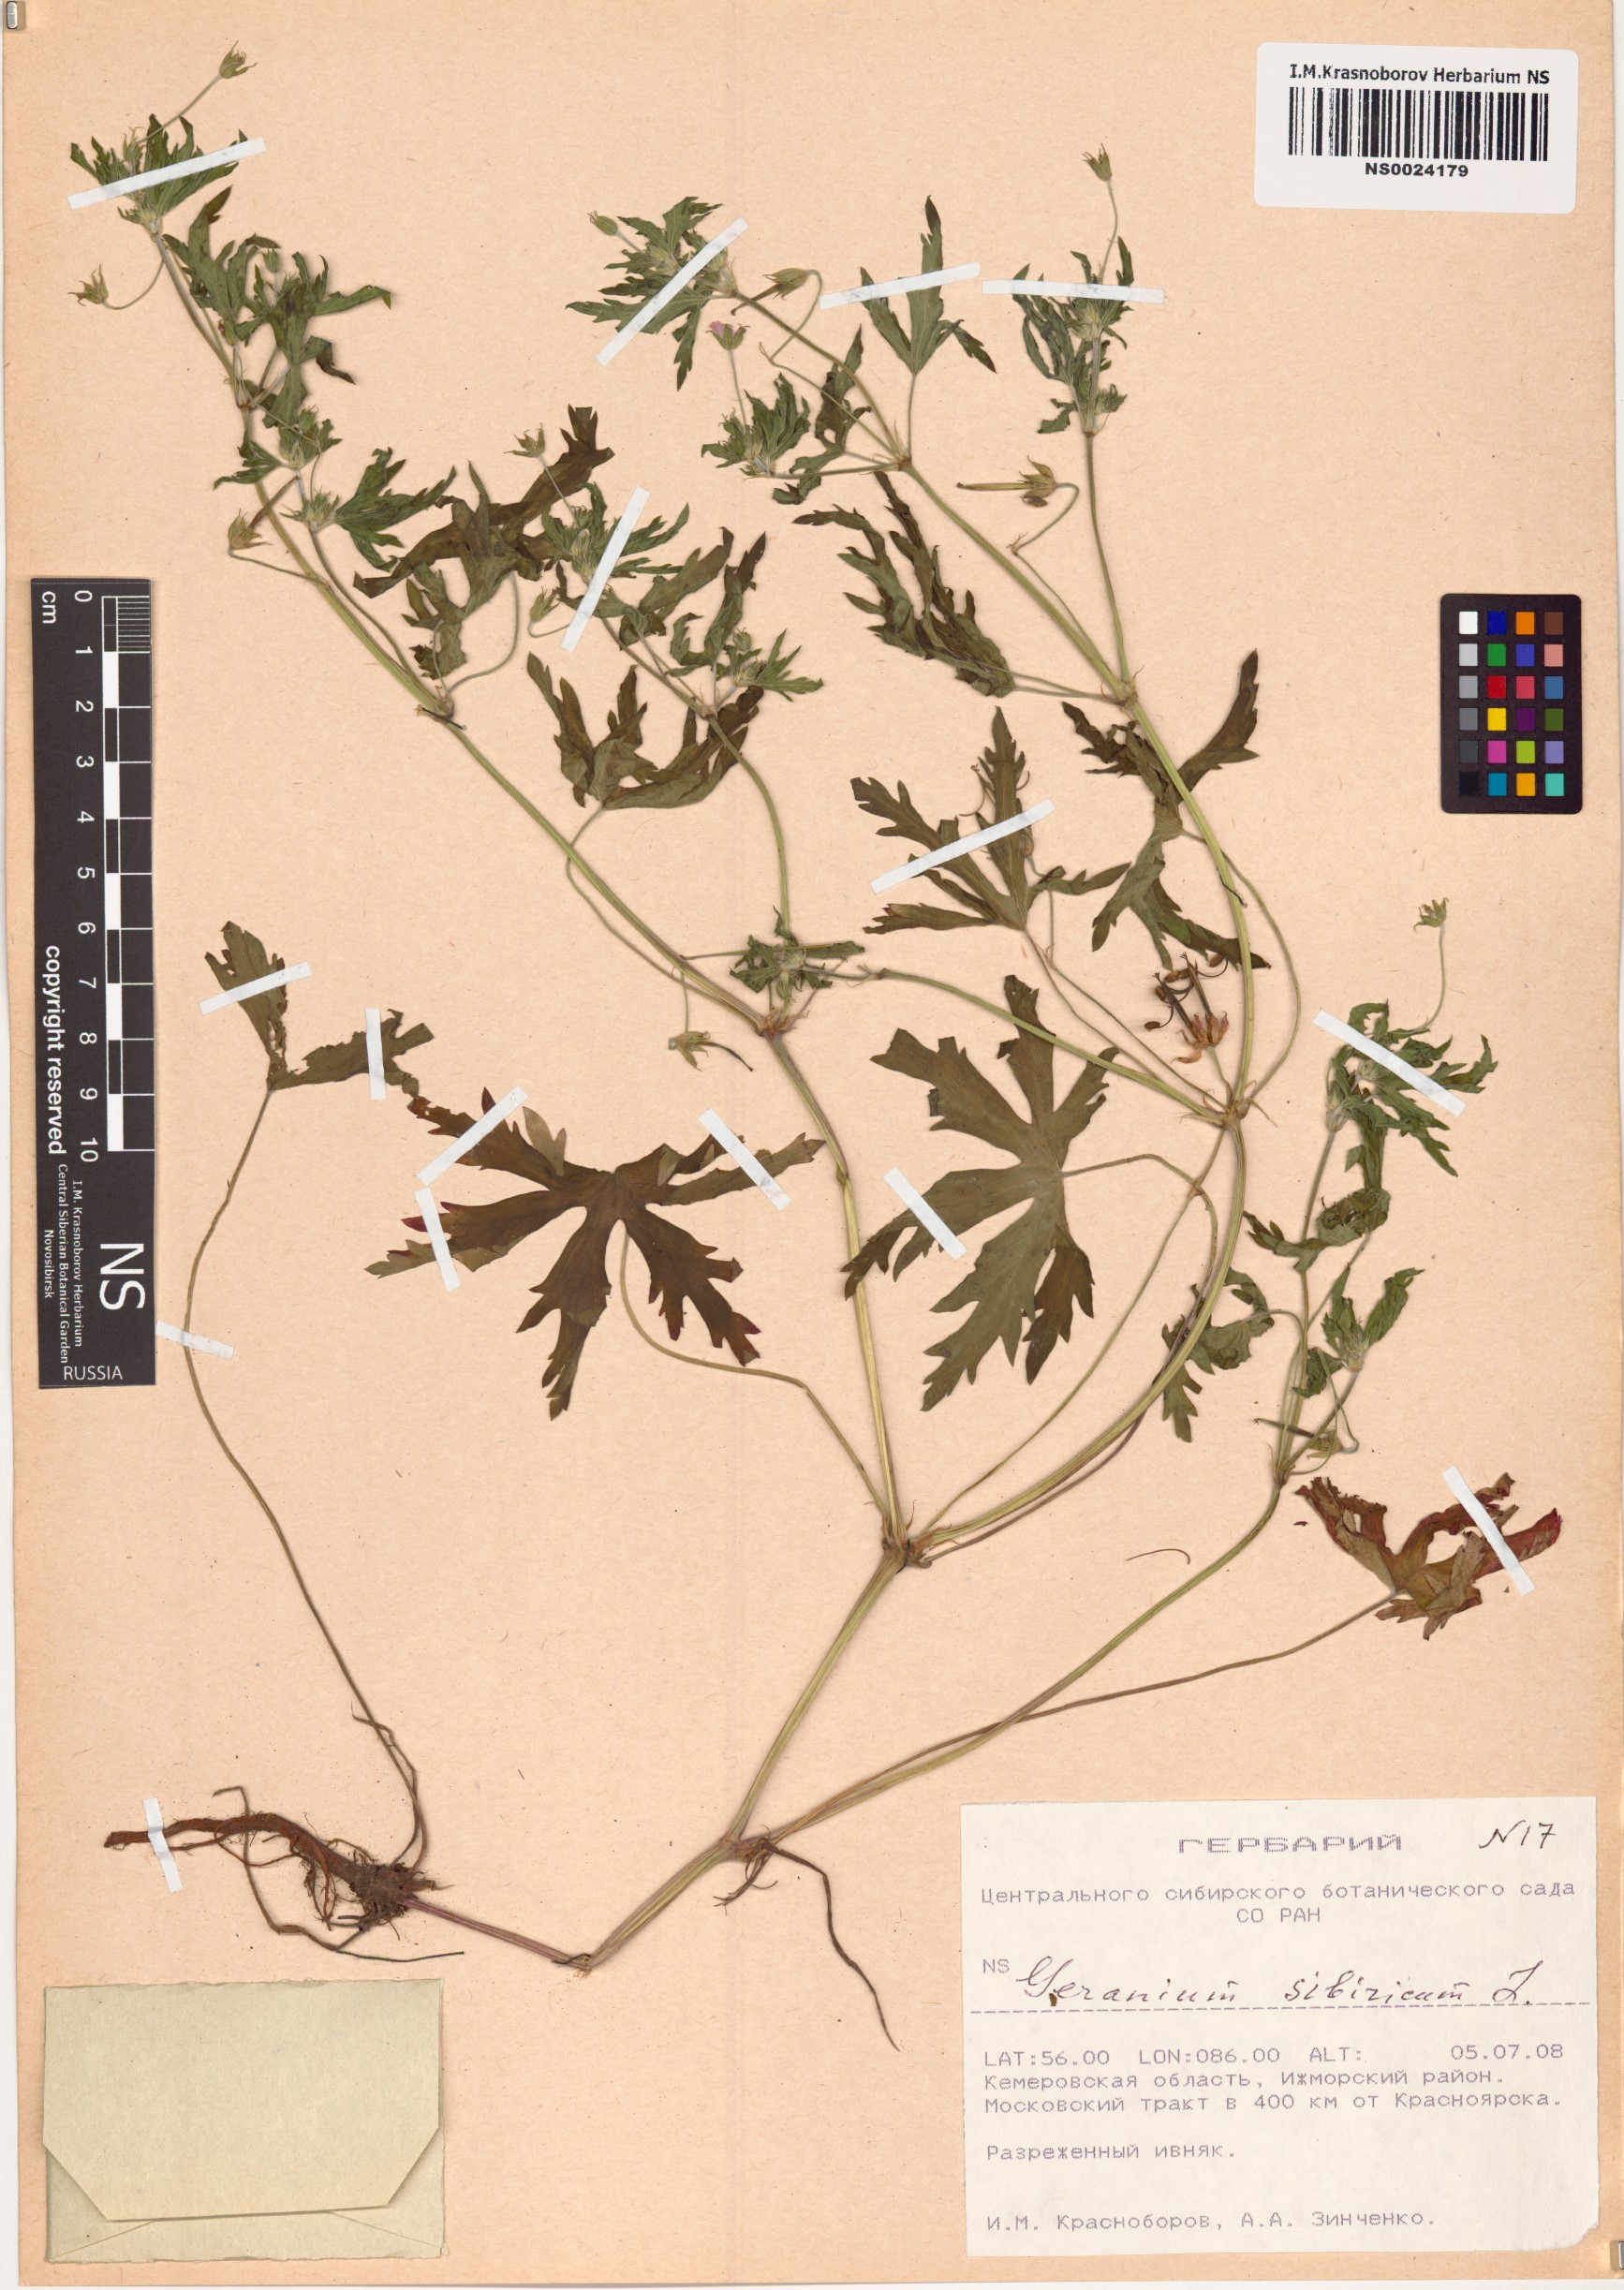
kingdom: Plantae
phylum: Tracheophyta
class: Magnoliopsida
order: Geraniales
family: Geraniaceae
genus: Geranium
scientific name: Geranium sibiricum
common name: Siberian crane's-bill
